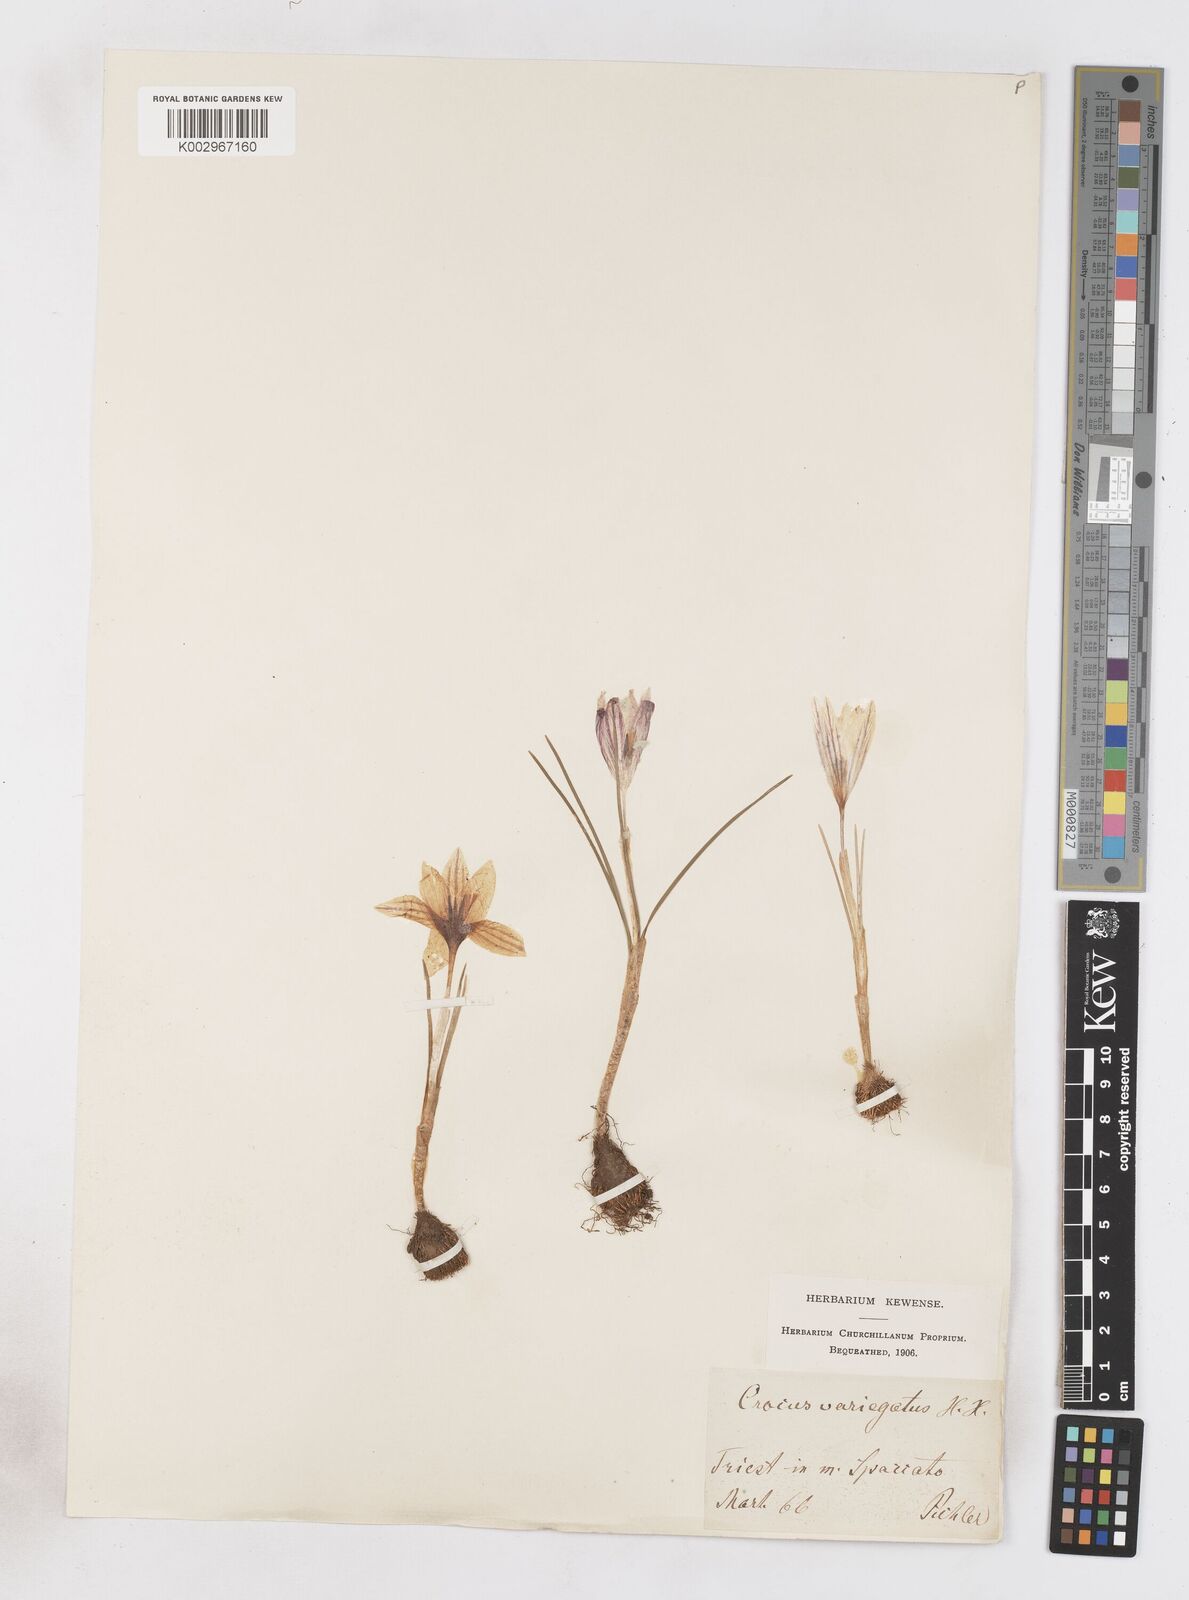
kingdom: Plantae
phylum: Tracheophyta
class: Liliopsida
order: Asparagales
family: Iridaceae
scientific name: Iridaceae
